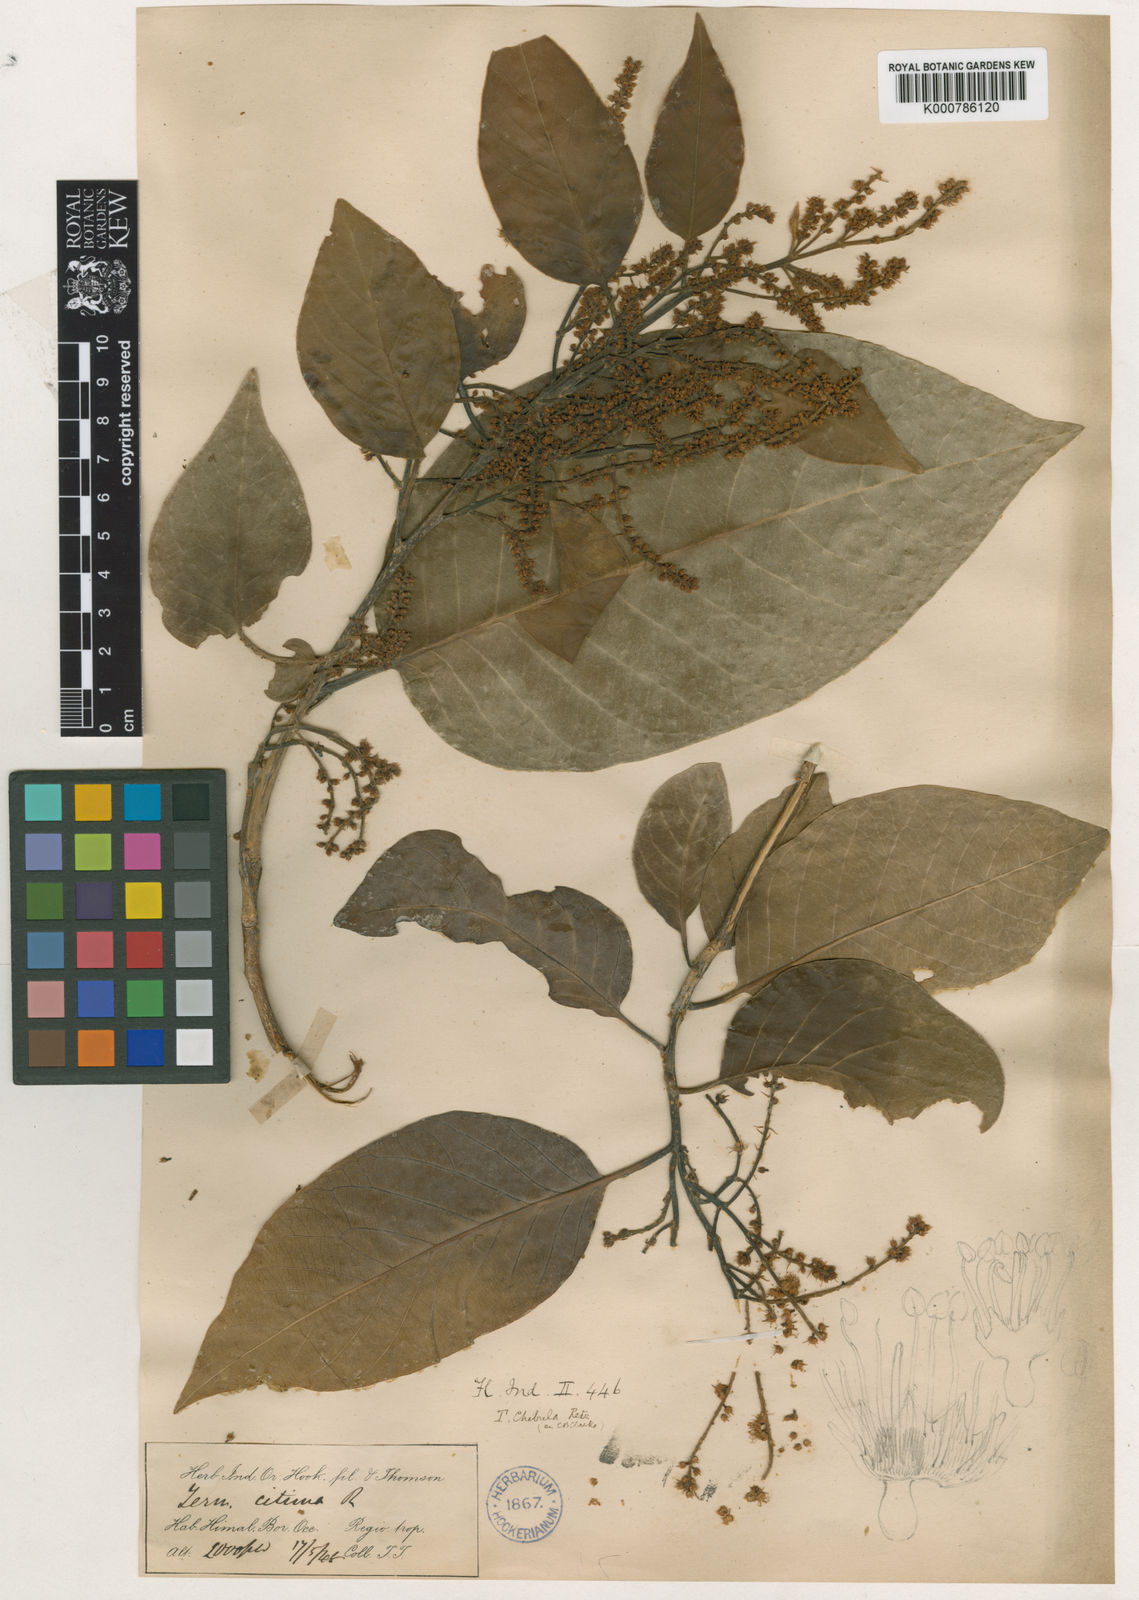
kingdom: Plantae
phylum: Tracheophyta
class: Magnoliopsida
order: Myrtales
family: Combretaceae
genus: Terminalia
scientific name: Terminalia chebula
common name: Myrobalan
